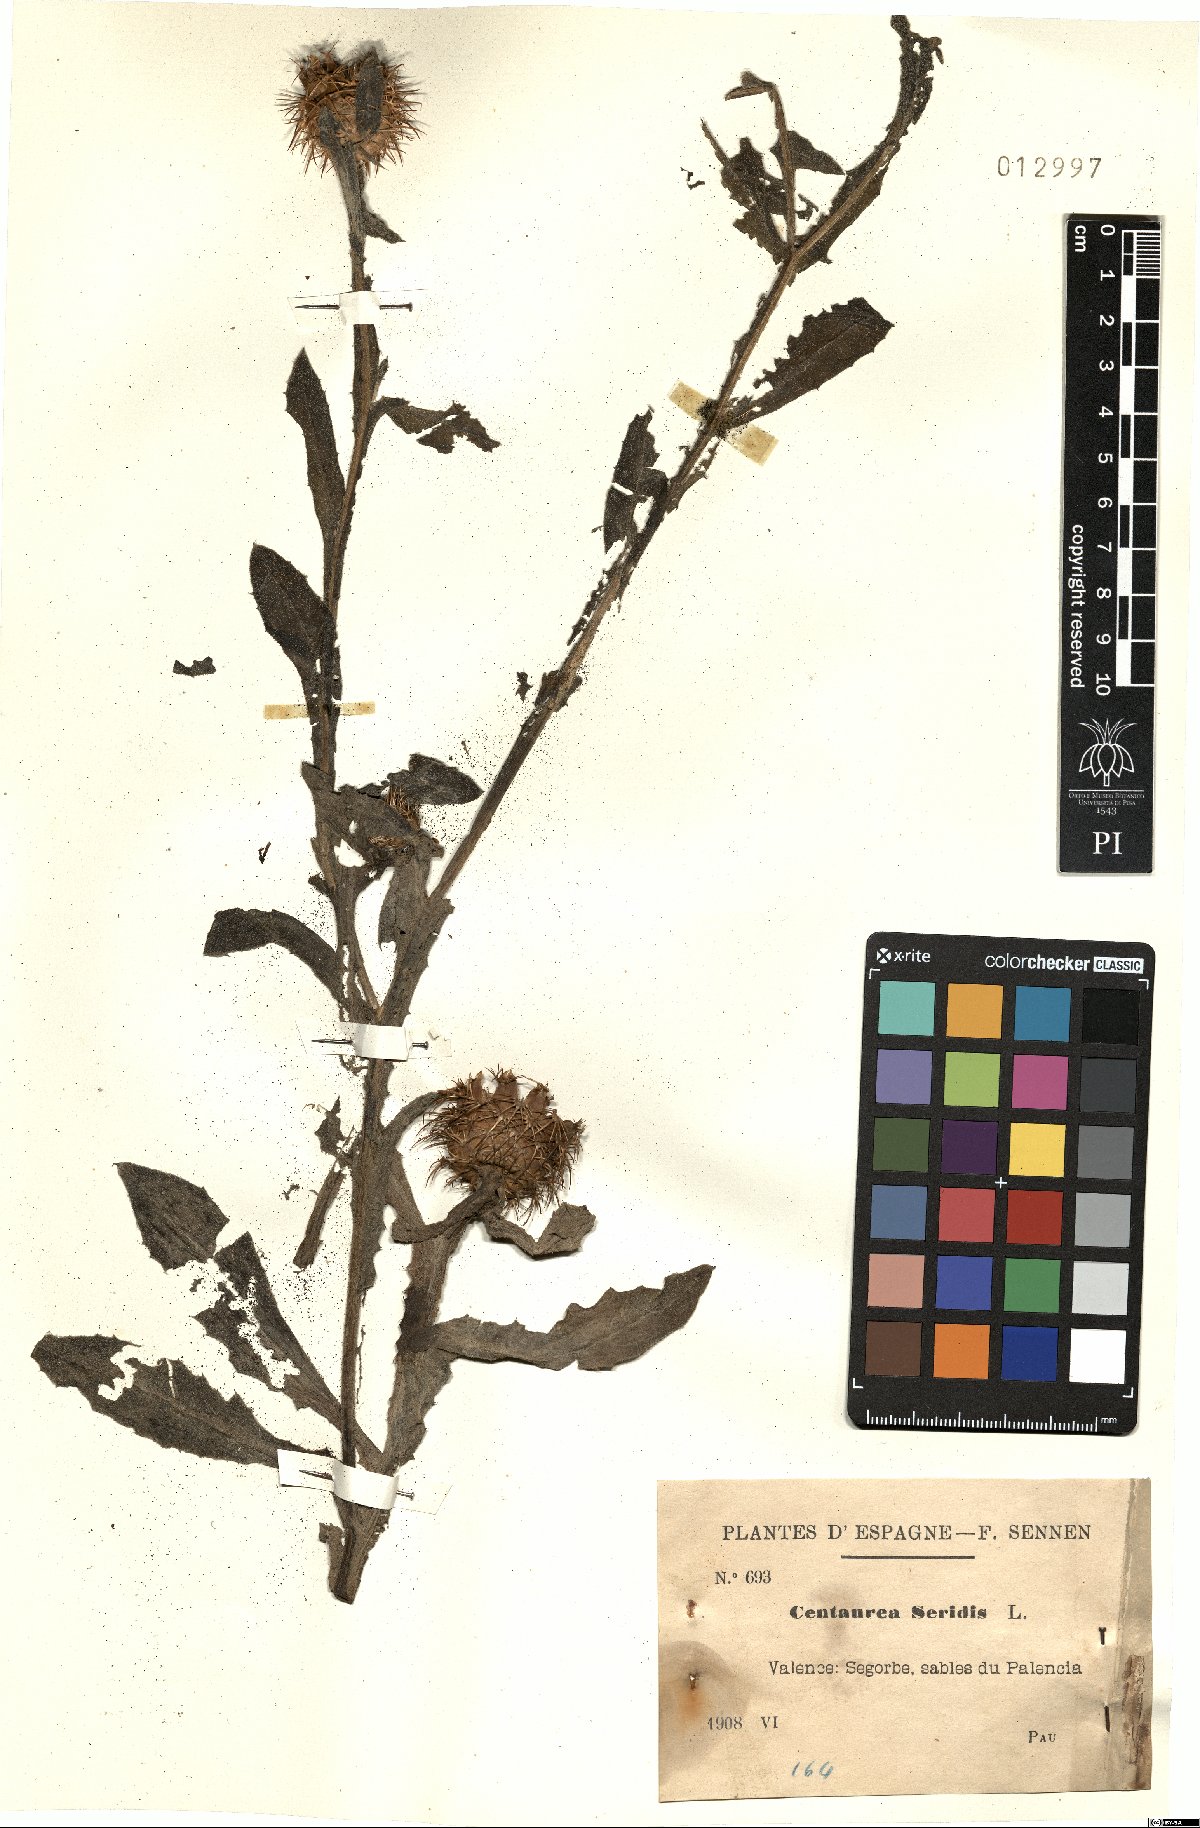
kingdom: Plantae
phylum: Tracheophyta
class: Magnoliopsida
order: Asterales
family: Asteraceae
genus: Centaurea
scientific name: Centaurea seridis
